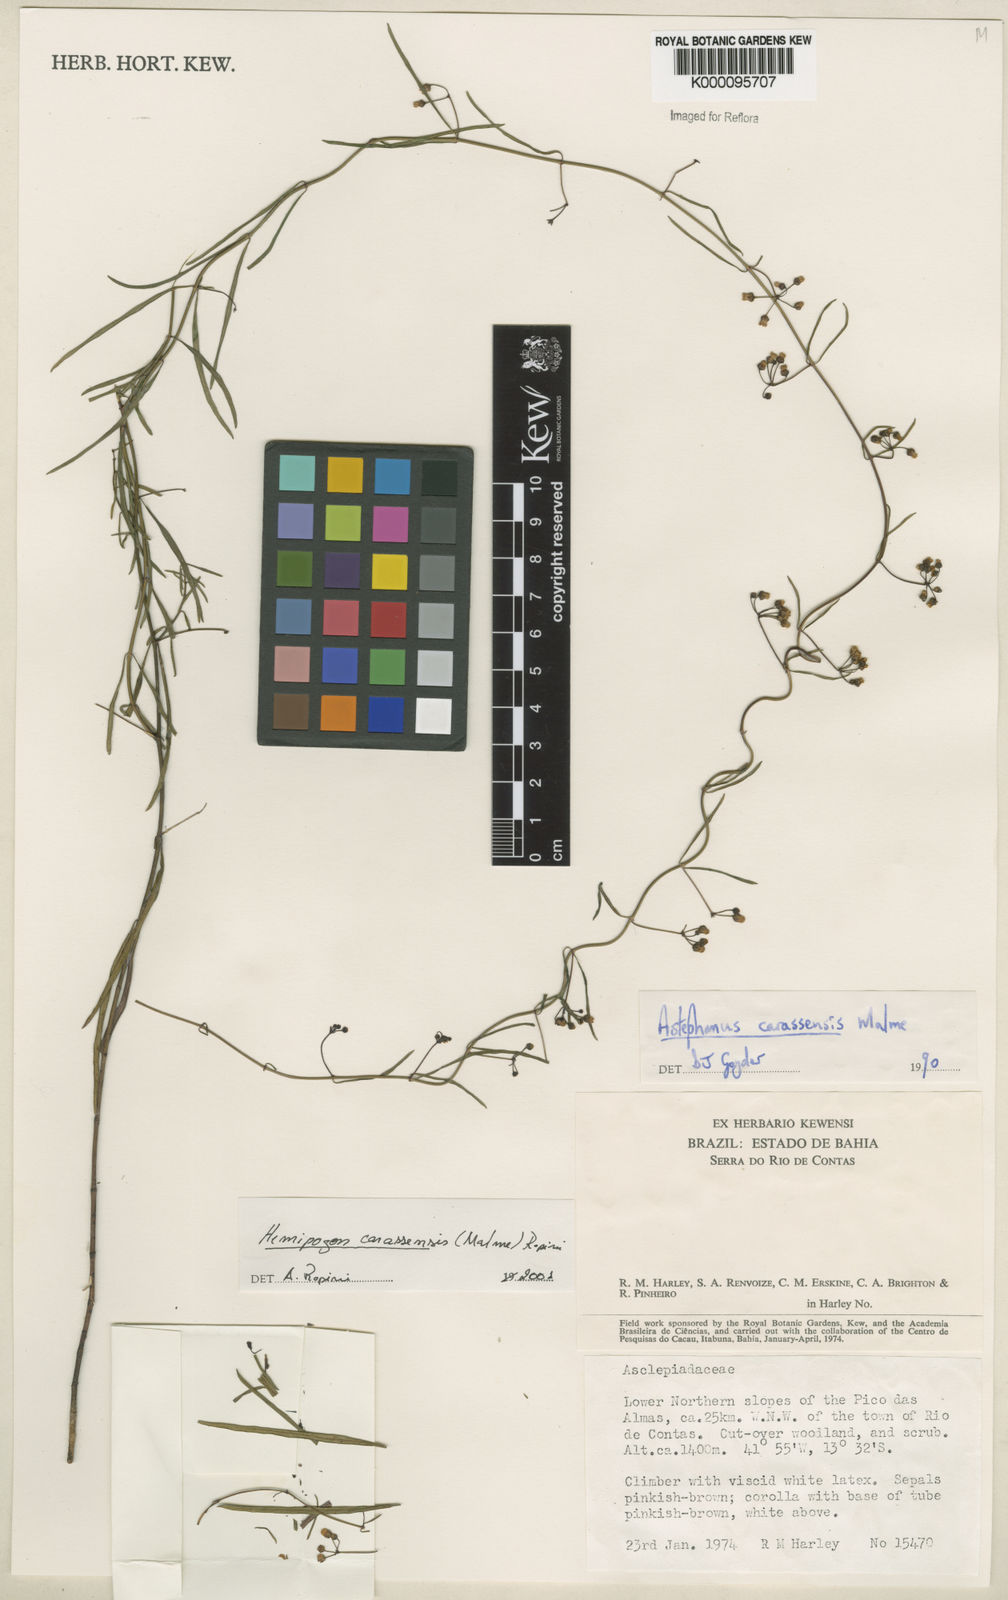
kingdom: Plantae
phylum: Tracheophyta
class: Magnoliopsida
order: Gentianales
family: Apocynaceae
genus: Morilloa
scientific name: Morilloa carassensis
